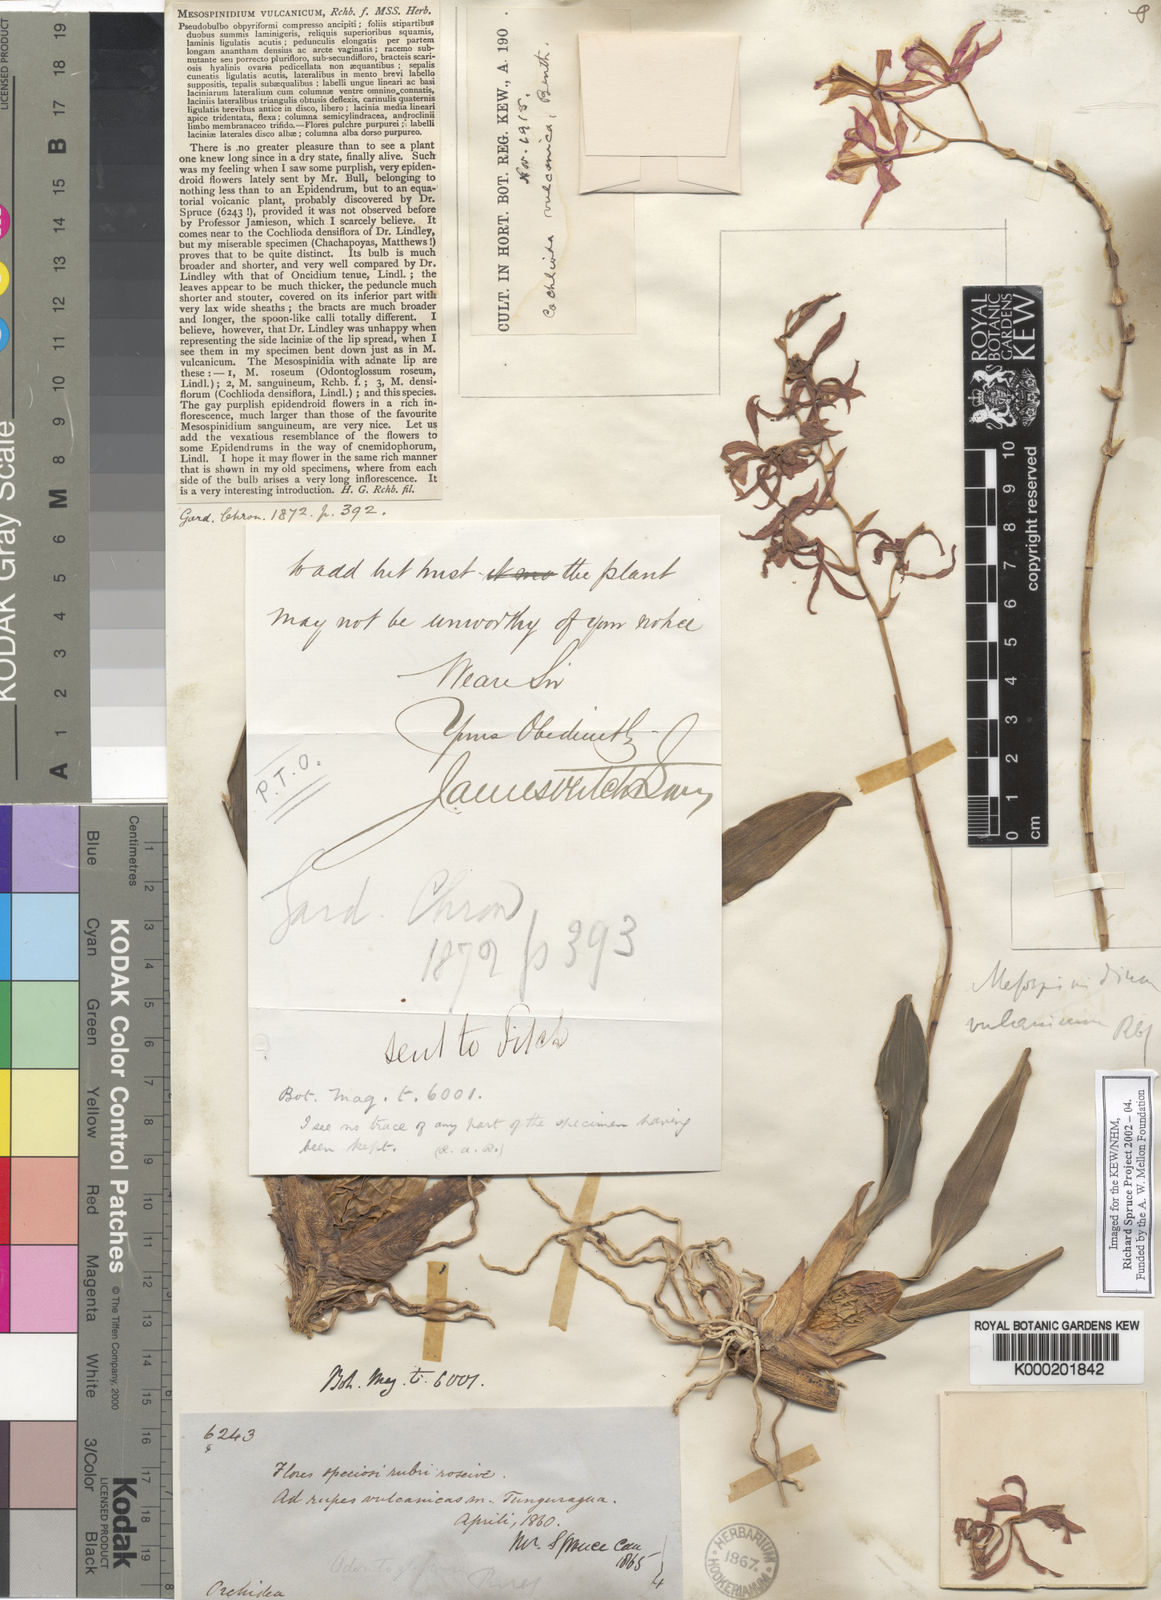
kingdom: Plantae
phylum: Tracheophyta
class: Liliopsida
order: Asparagales
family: Orchidaceae
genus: Oncidium
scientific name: Oncidium vulcanicum
